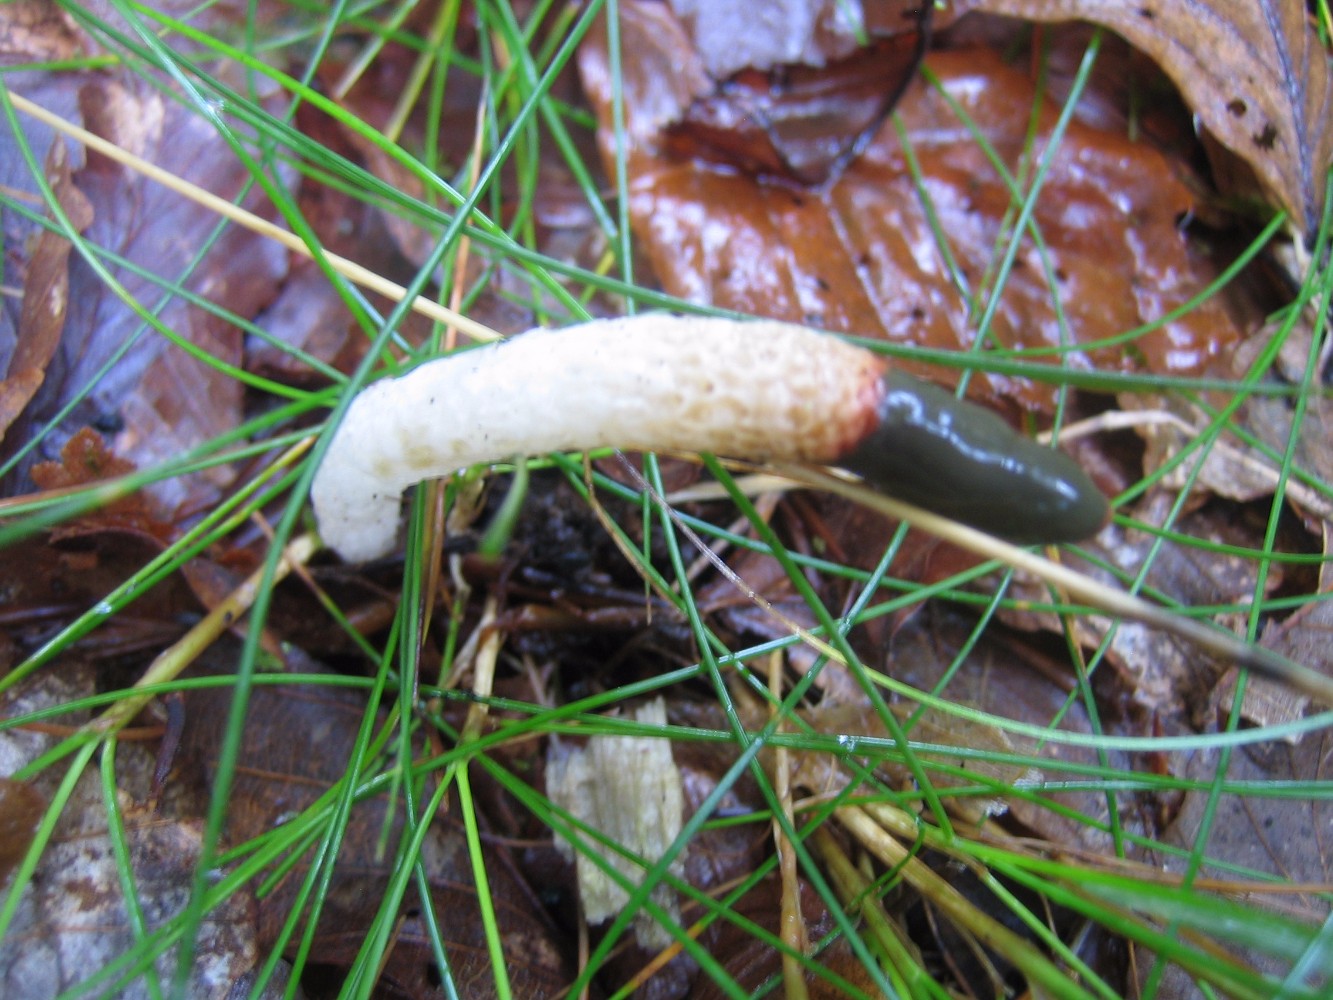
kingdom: Fungi
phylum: Basidiomycota
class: Agaricomycetes
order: Phallales
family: Phallaceae
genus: Mutinus
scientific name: Mutinus caninus
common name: hunde-stinksvamp
